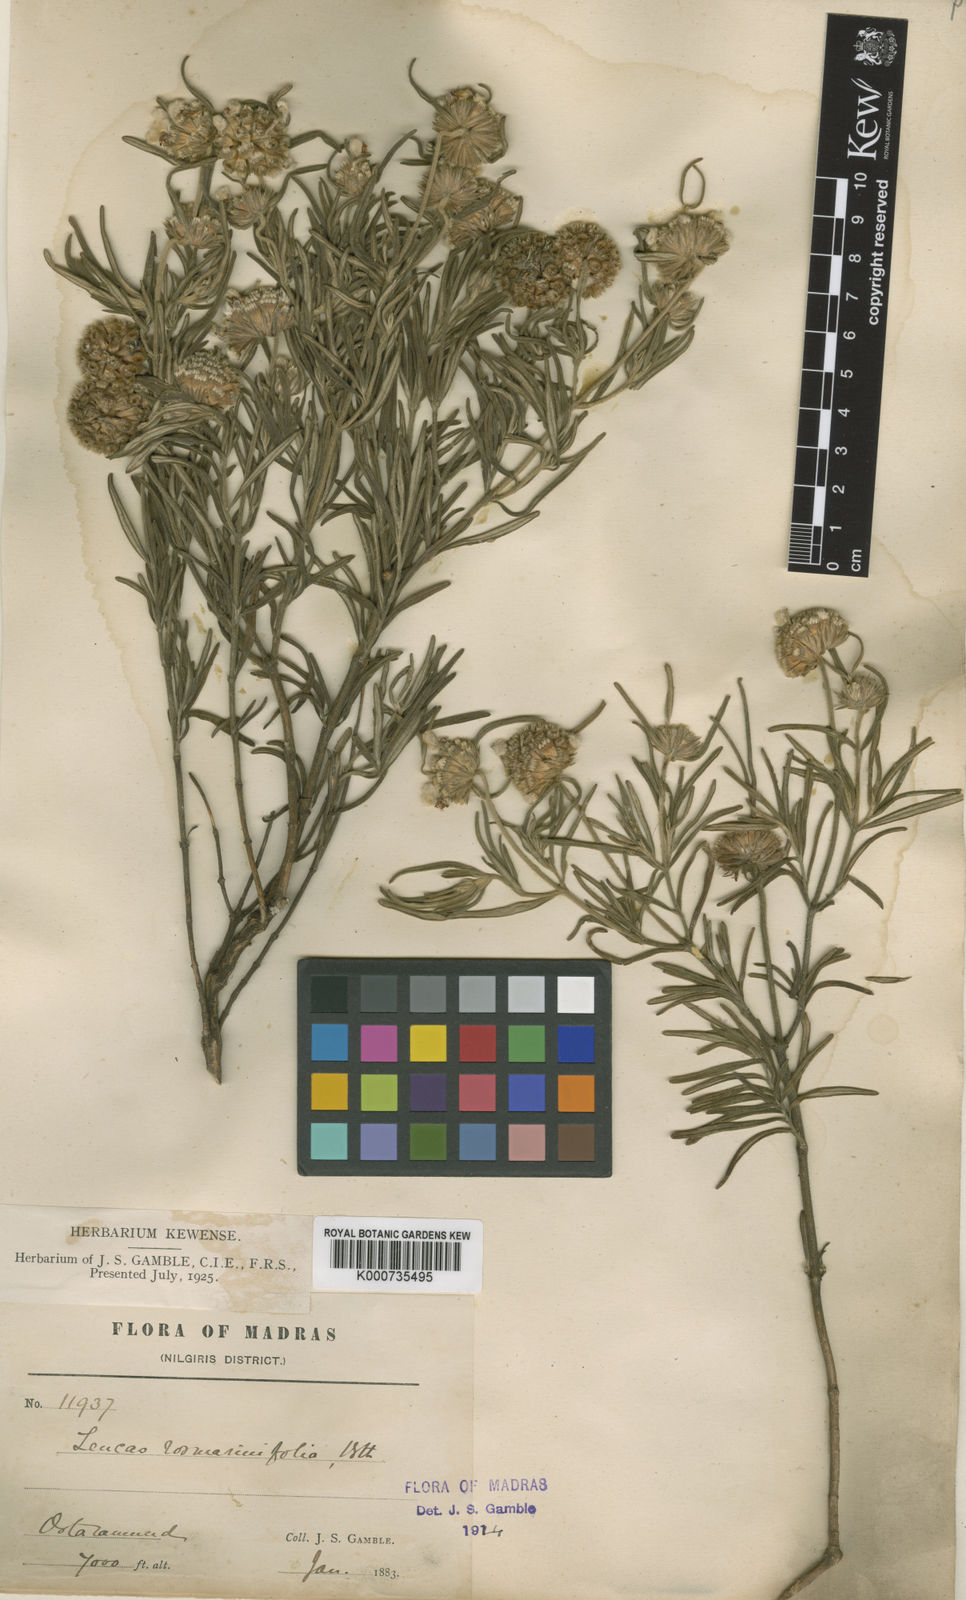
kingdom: Plantae
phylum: Tracheophyta
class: Magnoliopsida
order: Lamiales
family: Lamiaceae
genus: Leucas
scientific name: Leucas rosmarinifolia
